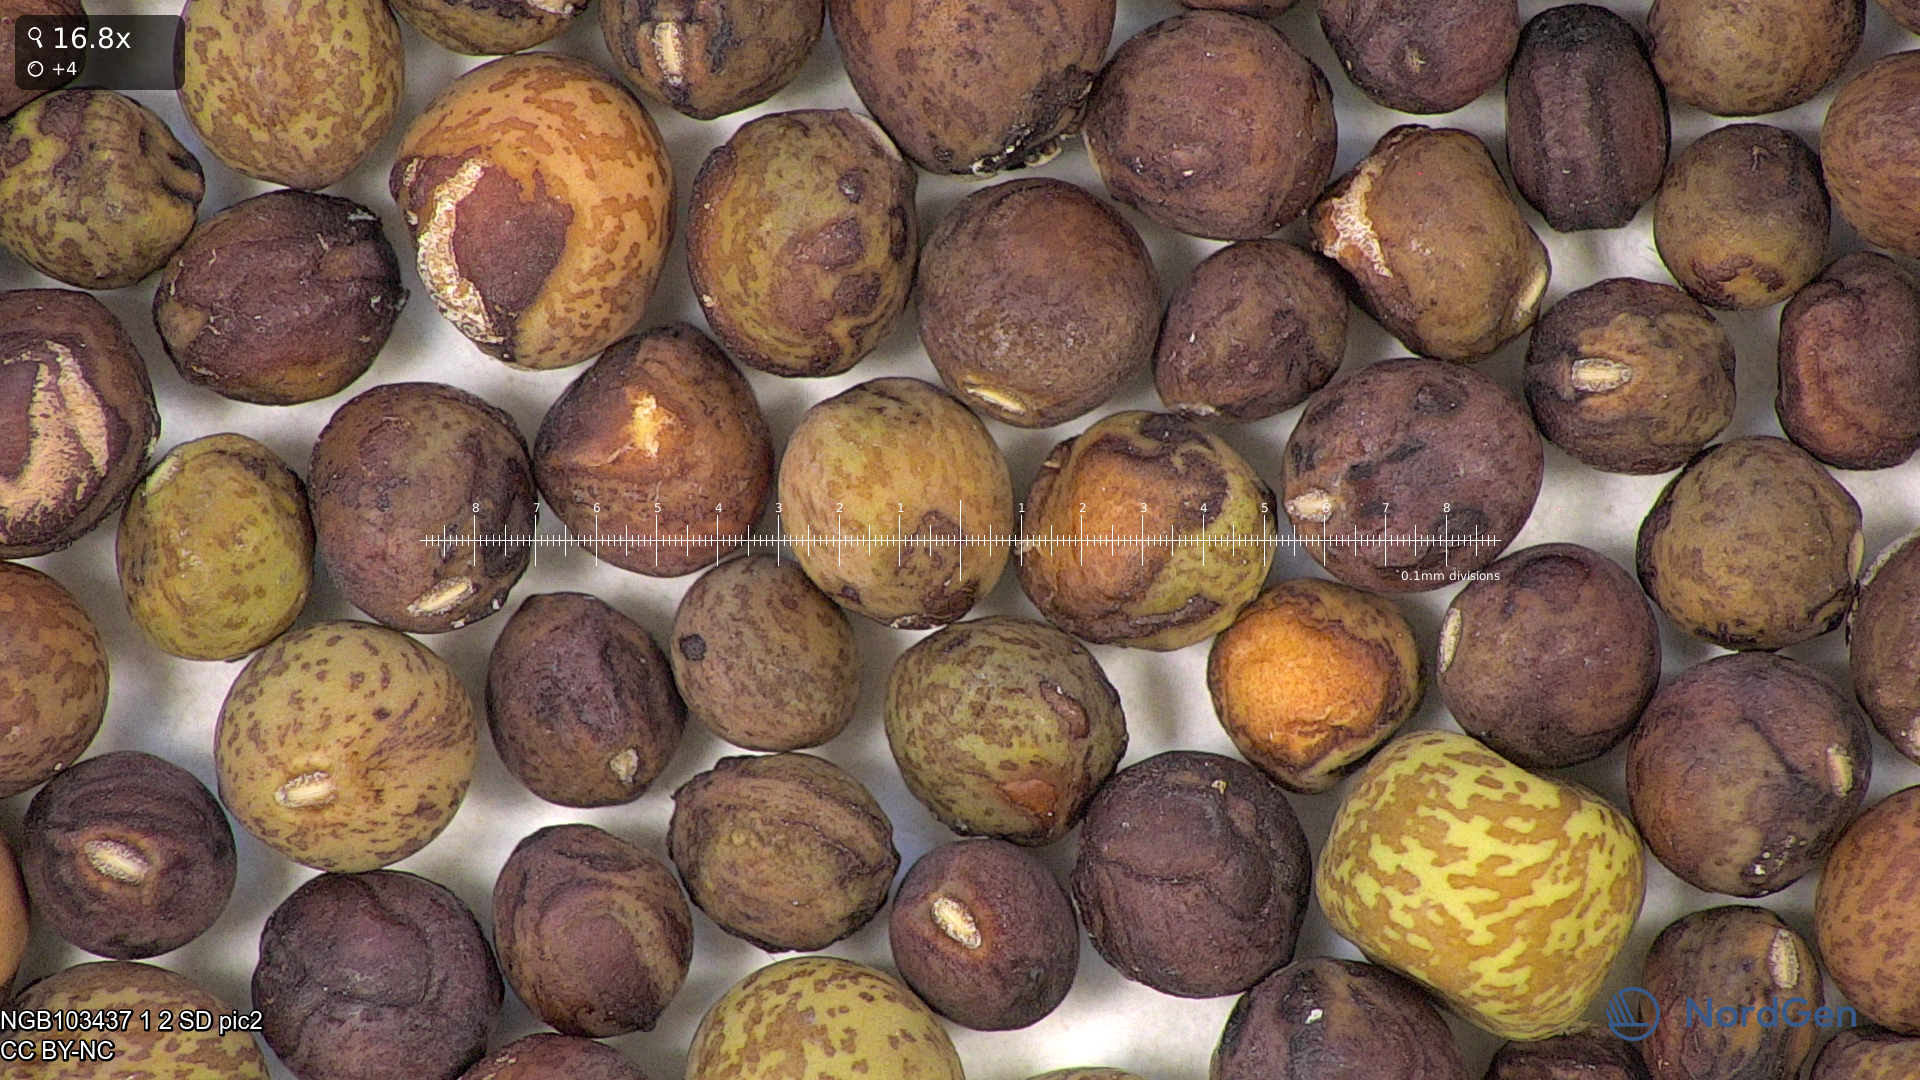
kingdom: Plantae
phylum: Tracheophyta
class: Magnoliopsida
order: Fabales
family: Fabaceae
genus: Lathyrus
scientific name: Lathyrus oleraceus
